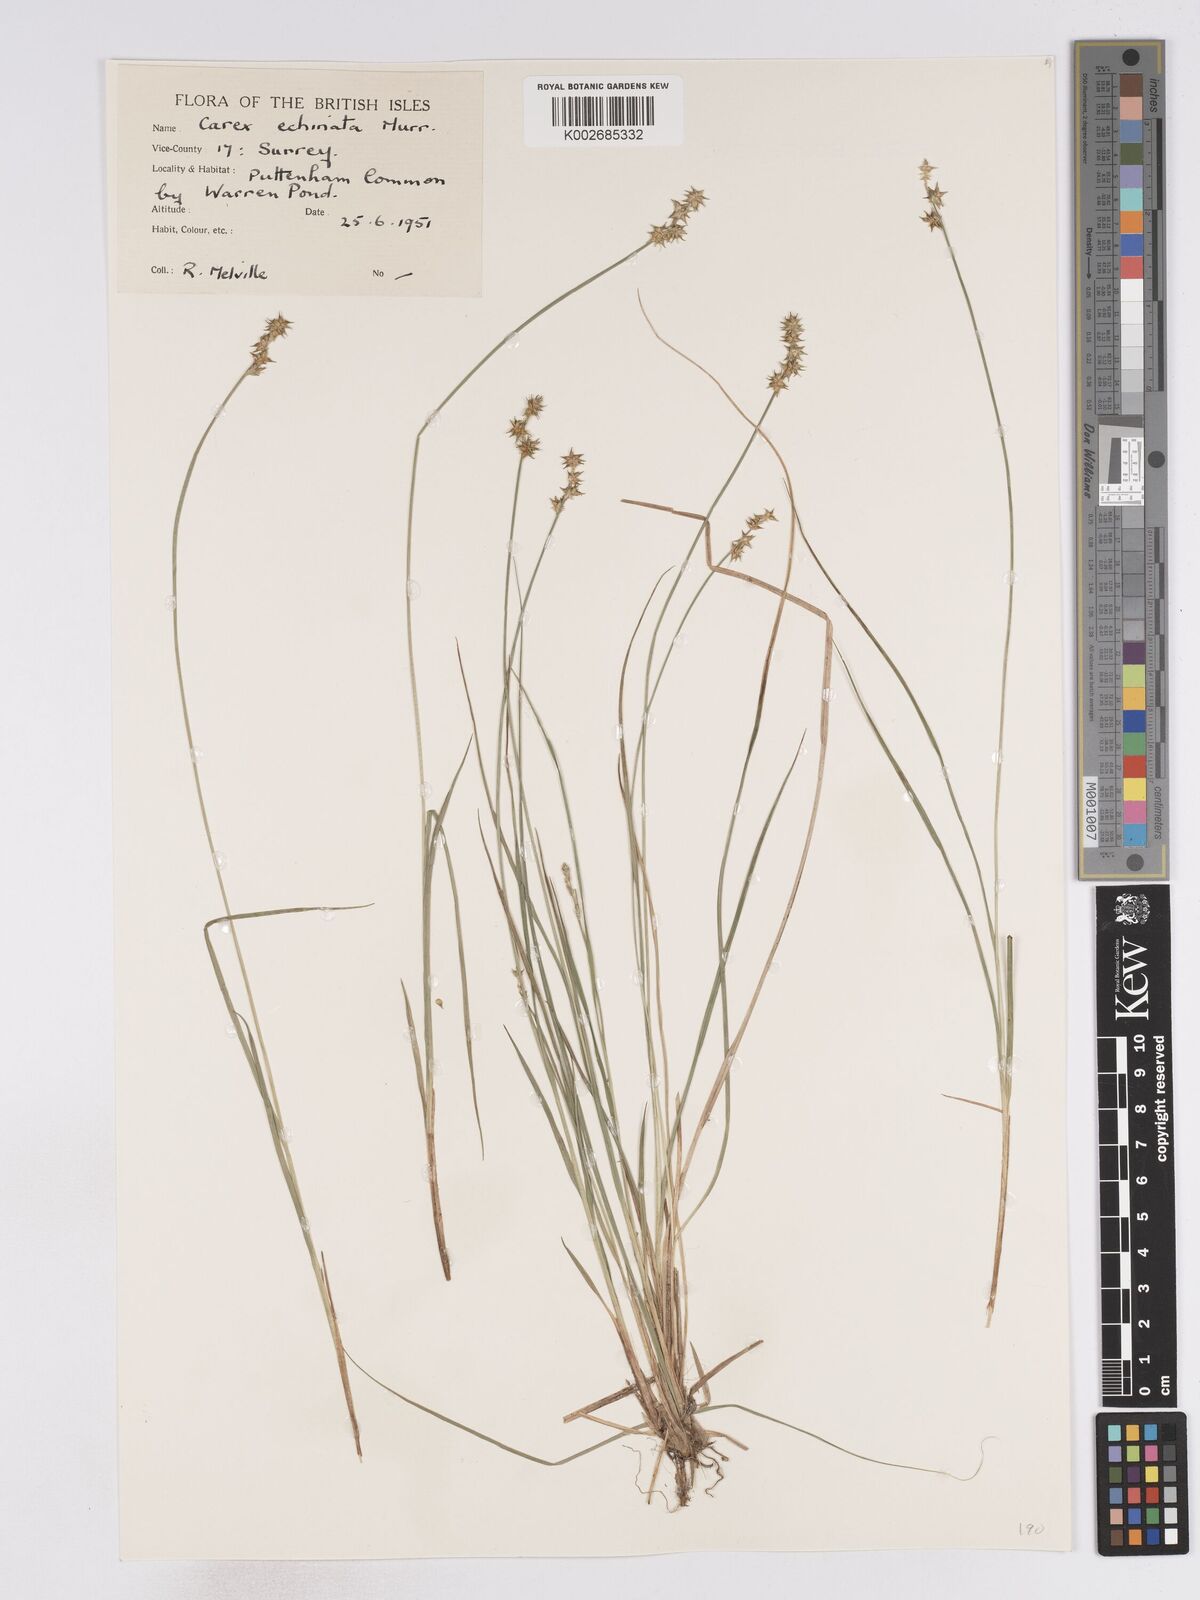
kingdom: Plantae
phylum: Tracheophyta
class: Liliopsida
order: Poales
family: Cyperaceae
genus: Carex
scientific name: Carex echinata
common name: Star sedge
